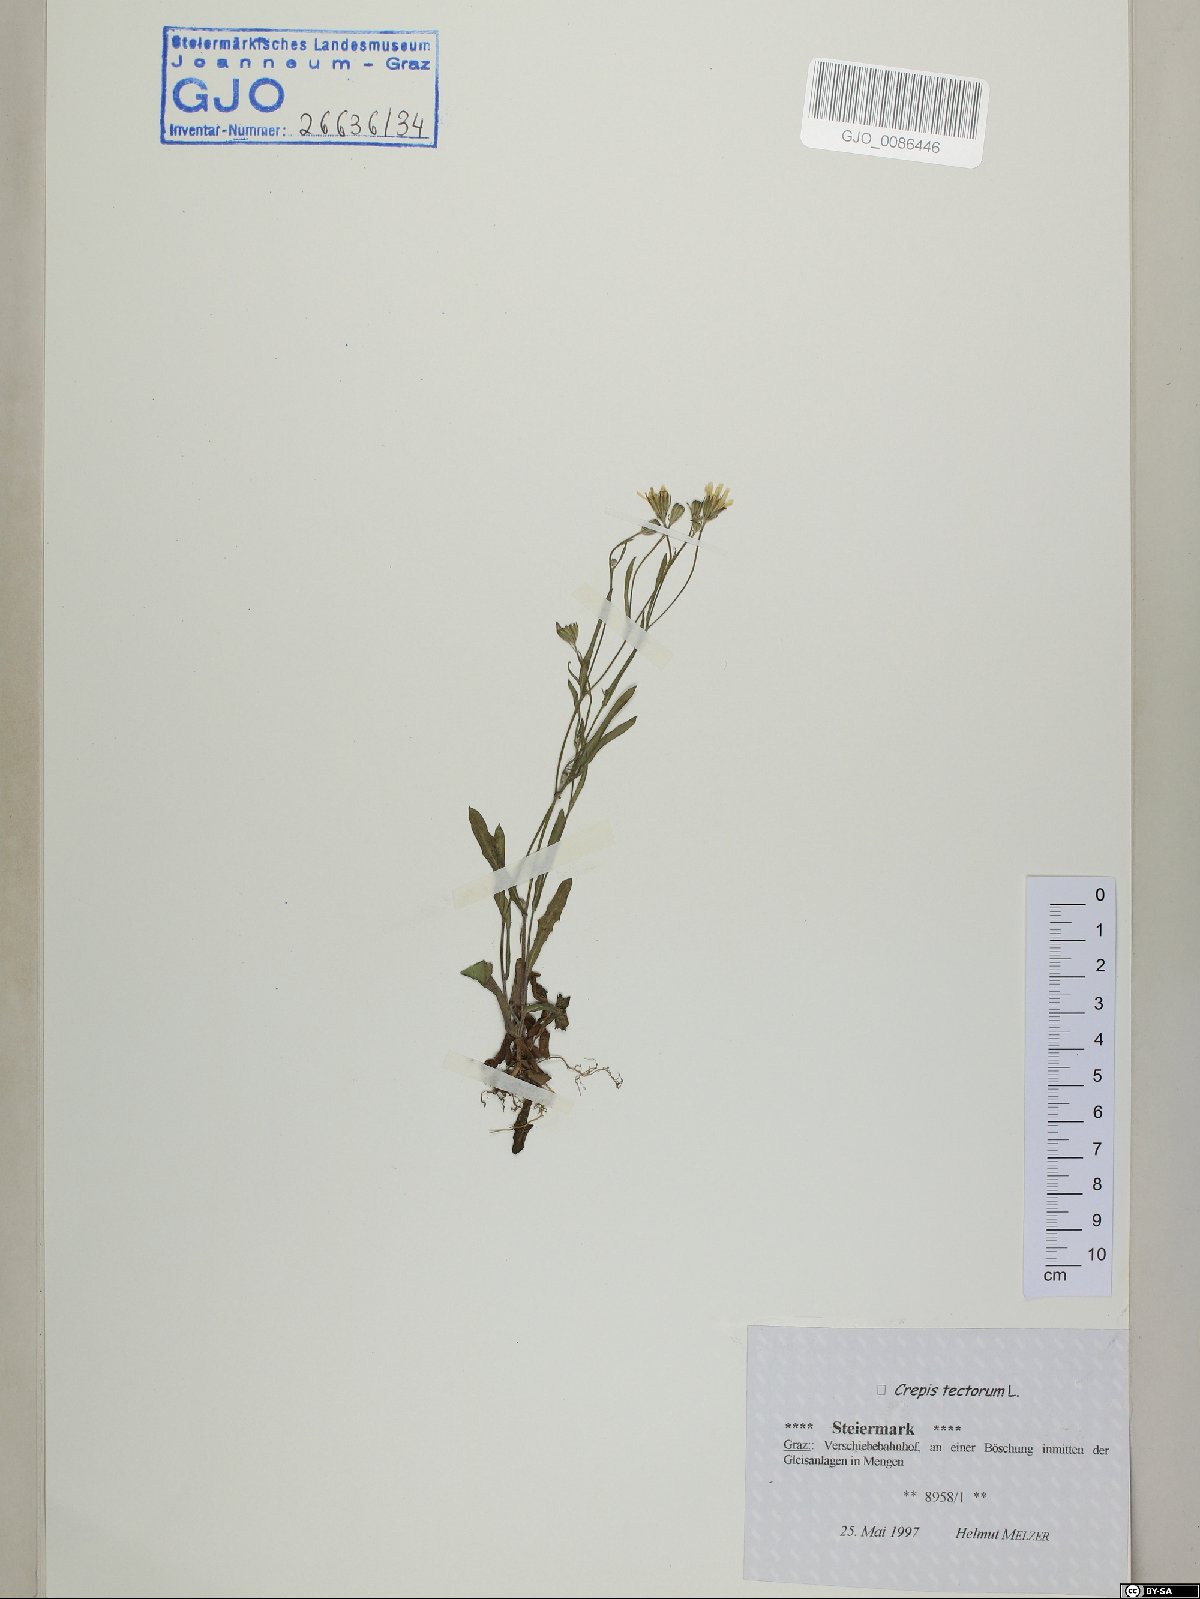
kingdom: Plantae
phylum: Tracheophyta
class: Magnoliopsida
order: Asterales
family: Asteraceae
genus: Crepis
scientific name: Crepis tectorum
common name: Narrow-leaved hawk's-beard
